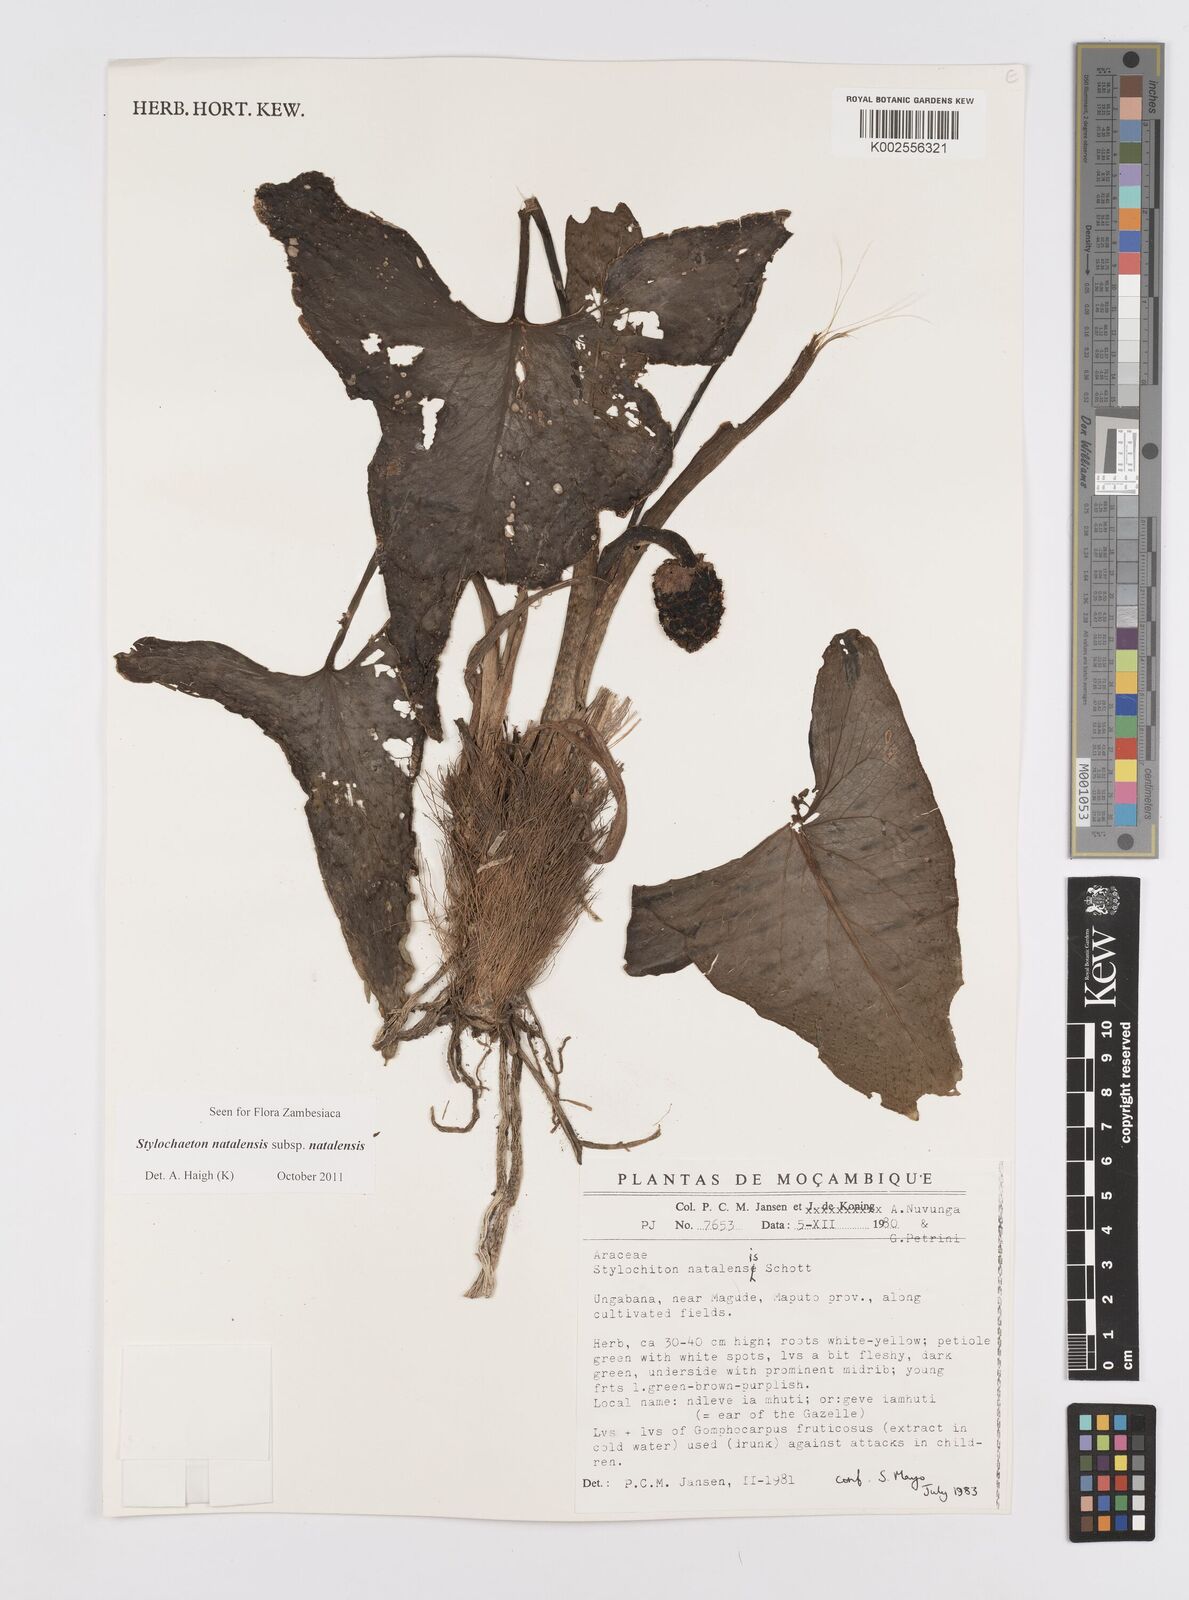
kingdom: Plantae
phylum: Tracheophyta
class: Liliopsida
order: Alismatales
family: Araceae
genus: Stylochaeton
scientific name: Stylochaeton natalense
